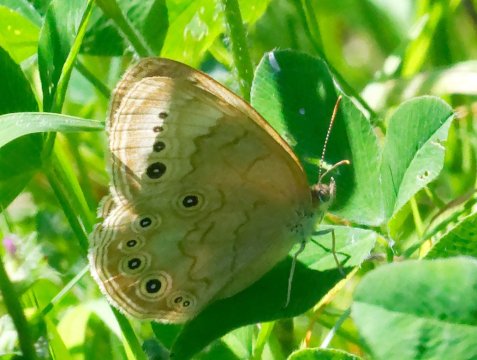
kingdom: Animalia
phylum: Arthropoda
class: Insecta
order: Lepidoptera
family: Nymphalidae
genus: Lethe
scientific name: Lethe eurydice
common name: Eyed Brown
